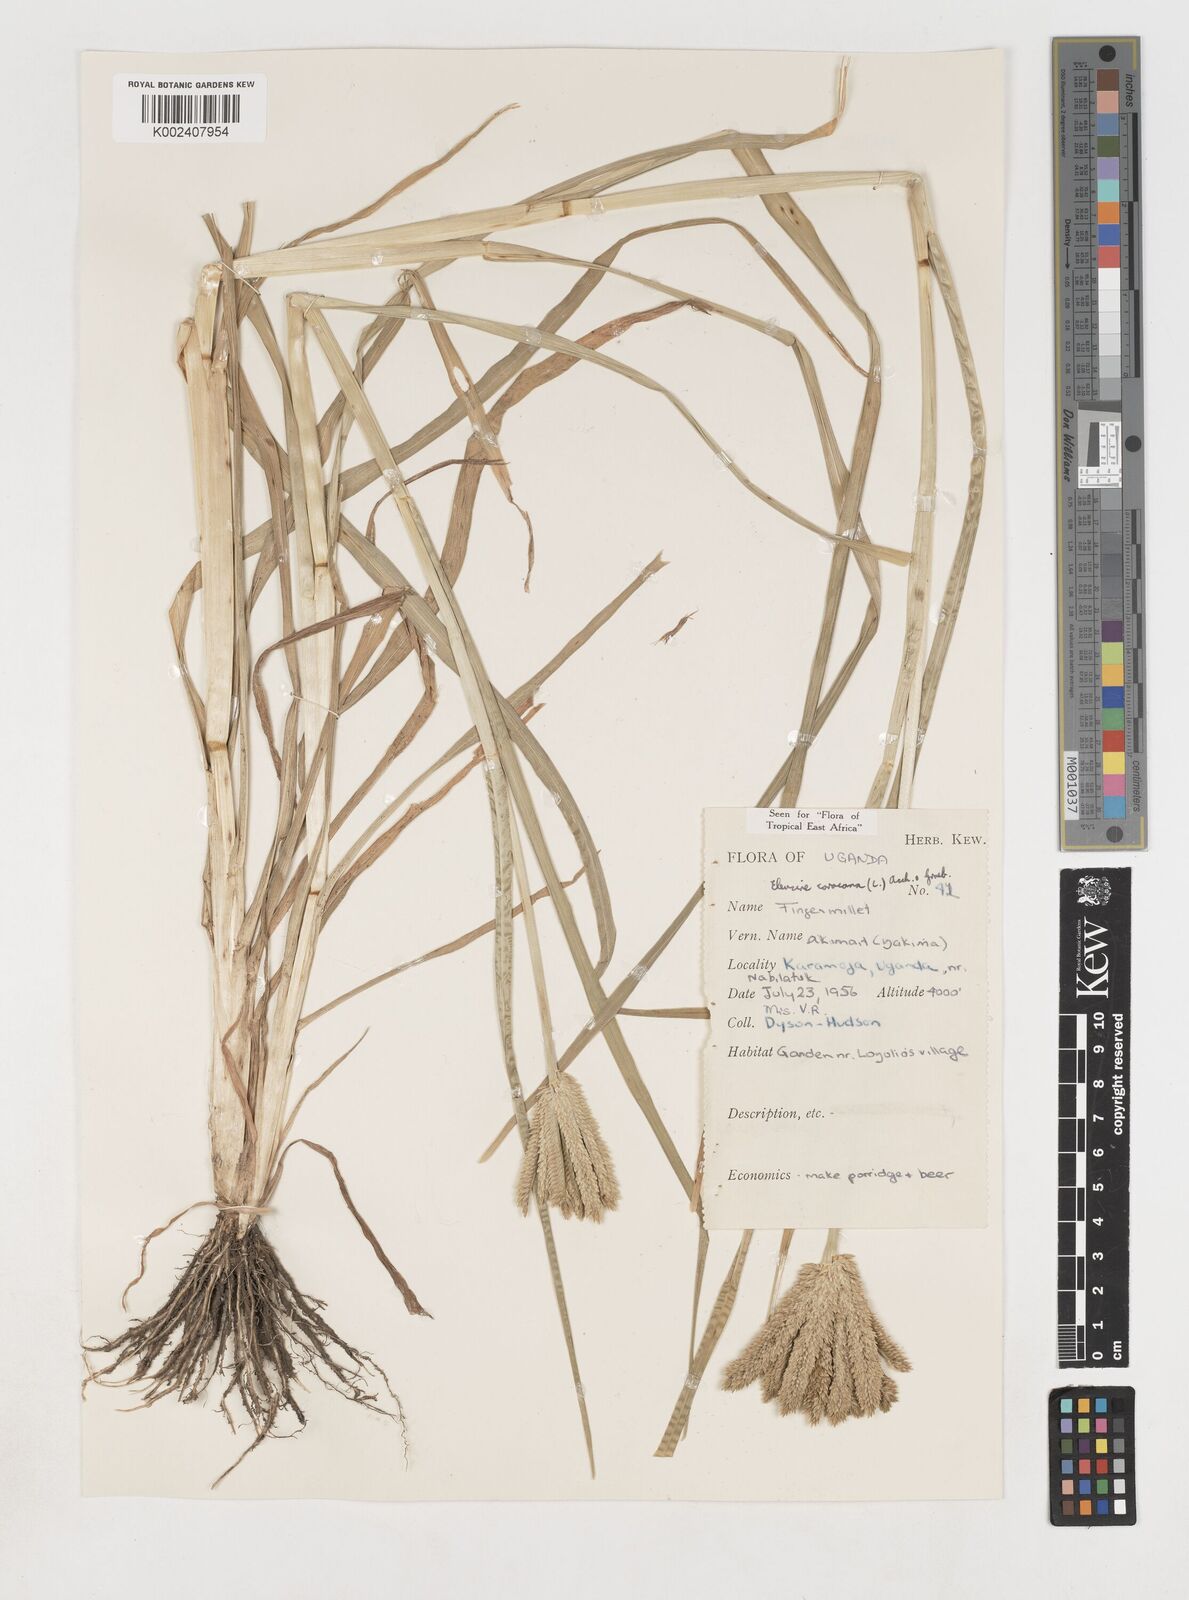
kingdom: Plantae
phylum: Tracheophyta
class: Liliopsida
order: Poales
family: Poaceae
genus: Eleusine
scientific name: Eleusine coracana
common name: Finger millet
